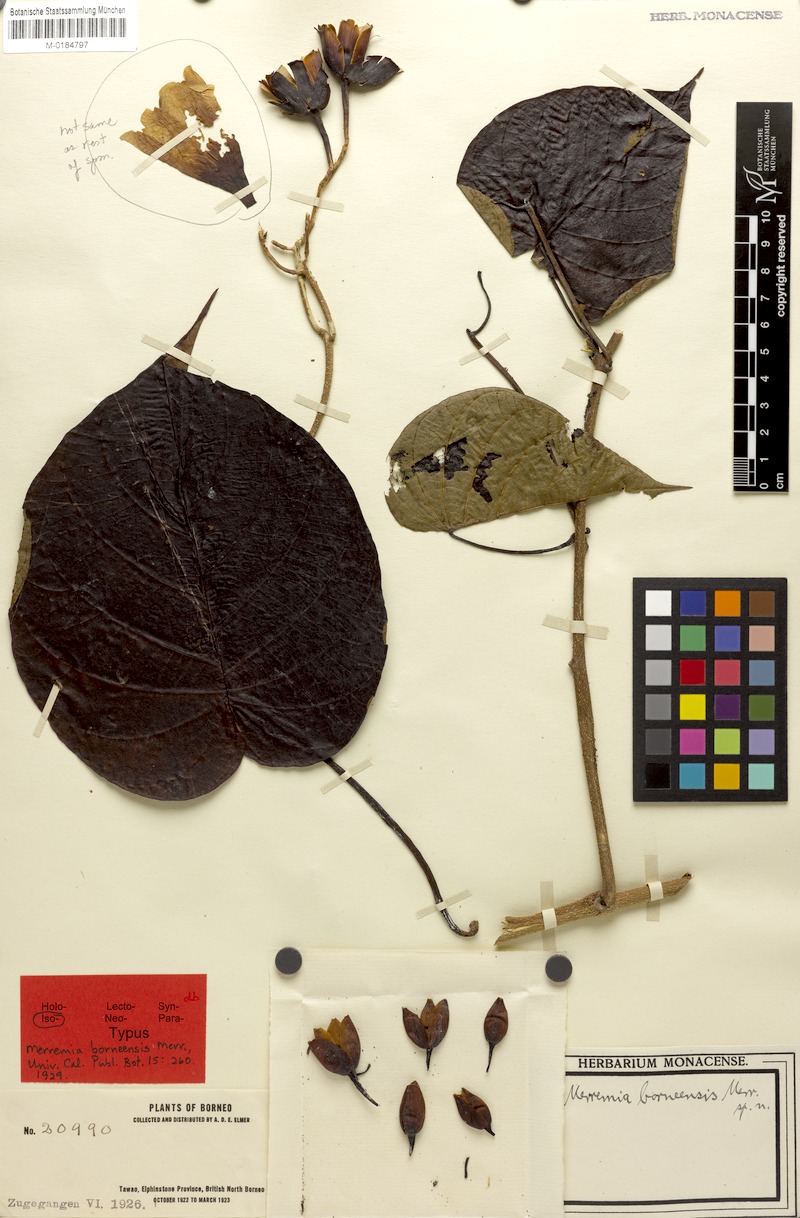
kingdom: Plantae
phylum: Tracheophyta
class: Magnoliopsida
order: Solanales
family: Convolvulaceae
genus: Decalobanthus
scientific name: Decalobanthus peltatus
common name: Merremia
